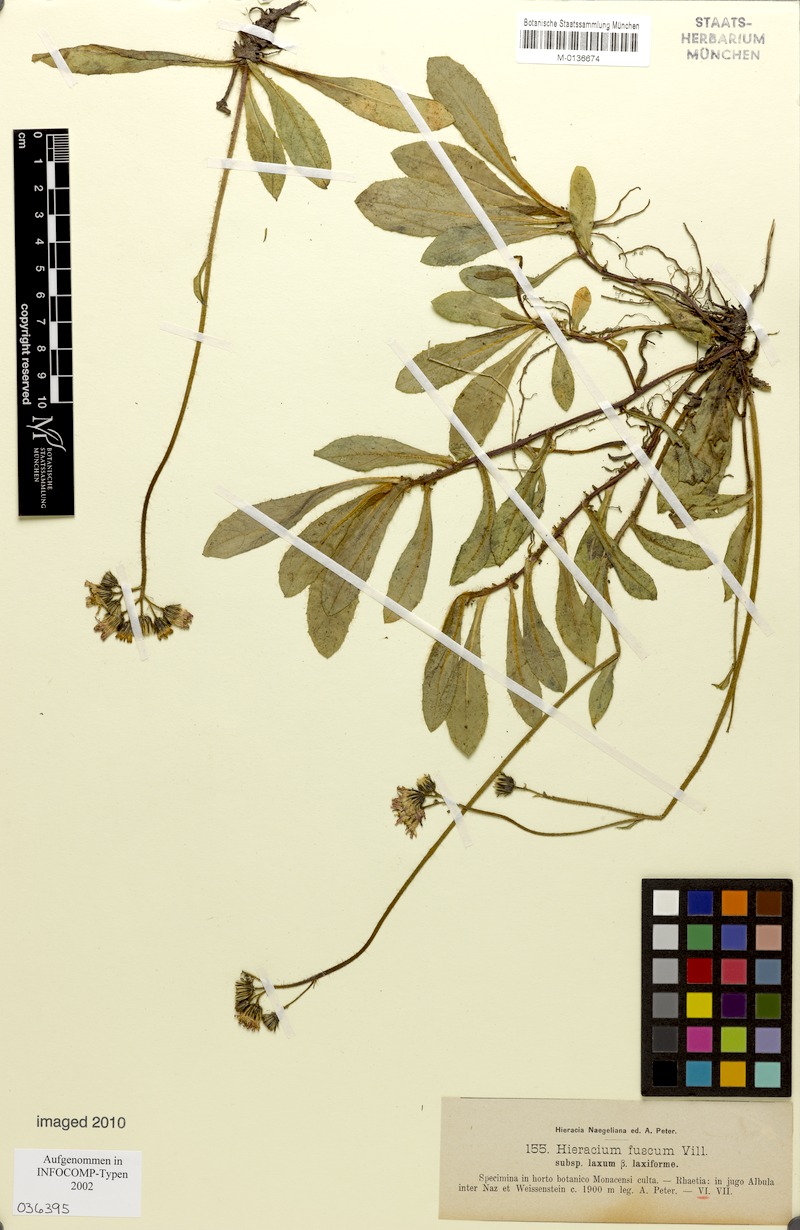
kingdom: Plantae
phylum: Tracheophyta
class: Magnoliopsida
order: Asterales
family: Asteraceae
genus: Pilosella
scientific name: Pilosella fusca
